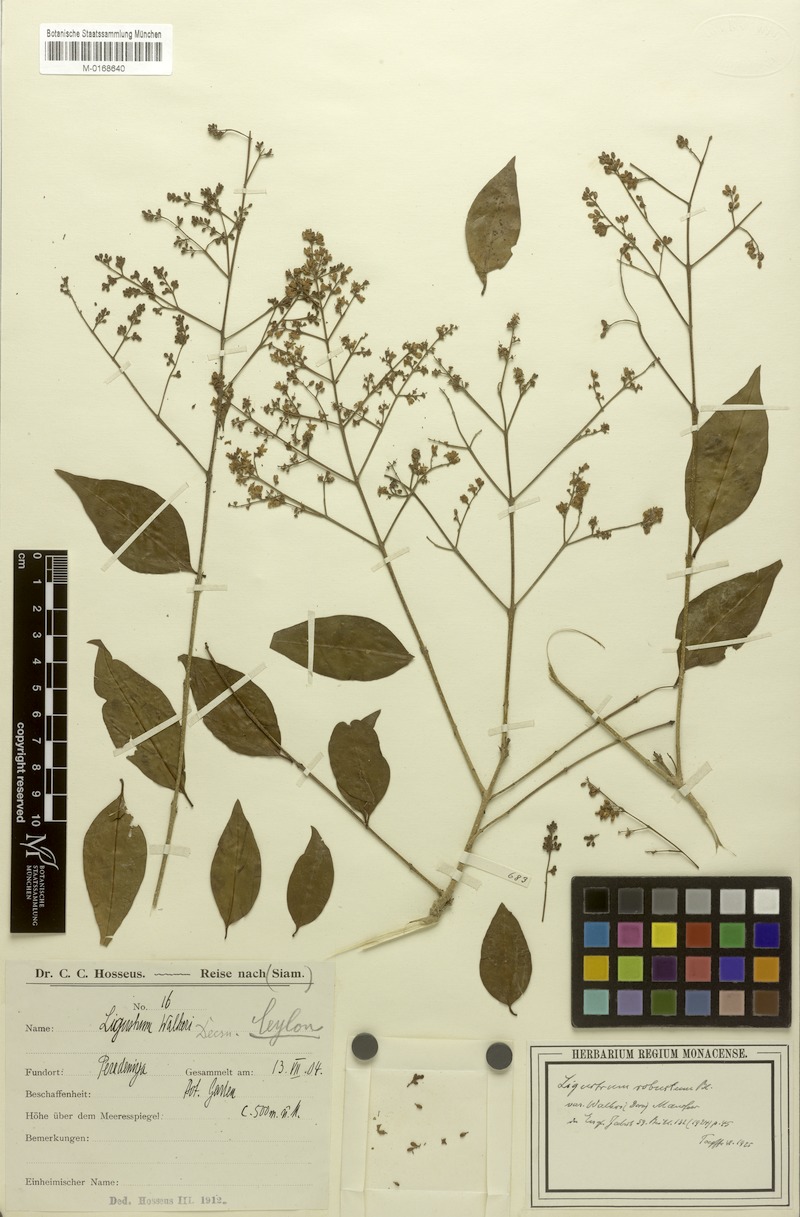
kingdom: Plantae
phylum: Tracheophyta
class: Magnoliopsida
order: Lamiales
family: Oleaceae
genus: Ligustrum
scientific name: Ligustrum robustum
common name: Tree privet
